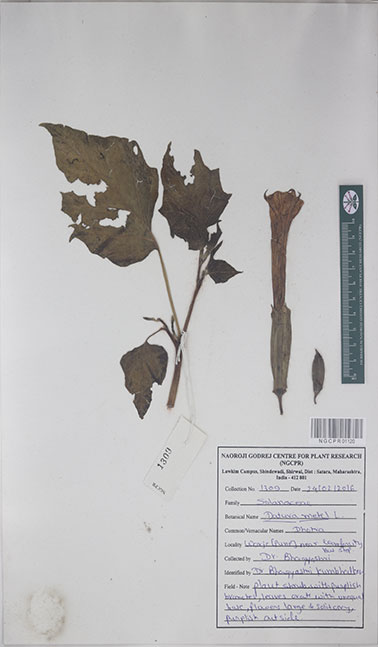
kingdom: Plantae
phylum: Tracheophyta
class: Magnoliopsida
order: Solanales
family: Solanaceae
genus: Datura
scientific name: Datura metel
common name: Jimsonweed
